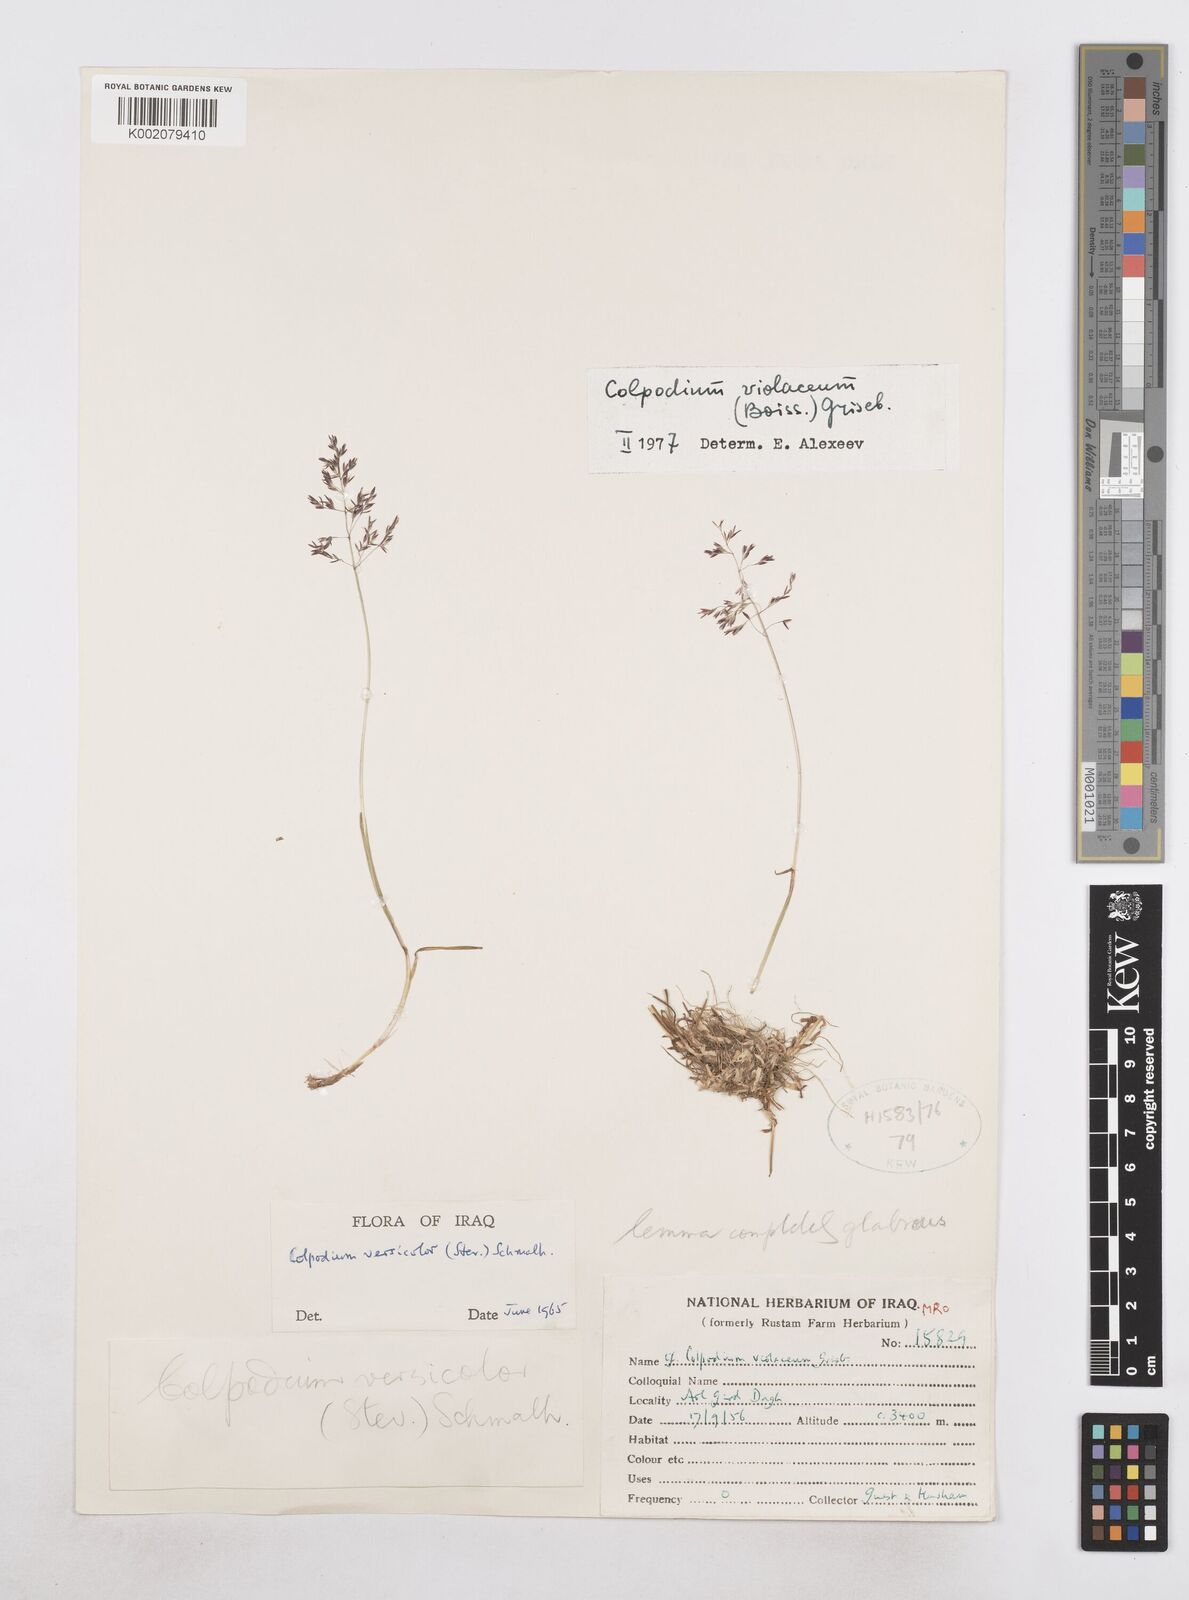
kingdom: Plantae
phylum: Tracheophyta
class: Liliopsida
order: Poales
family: Poaceae
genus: Catabrosella
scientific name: Catabrosella violacea
